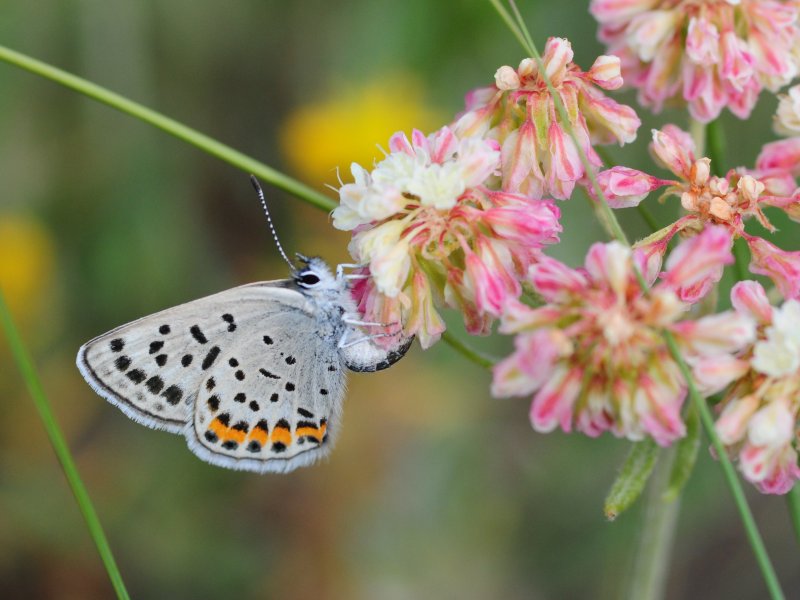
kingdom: Animalia
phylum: Arthropoda
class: Insecta
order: Lepidoptera
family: Lycaenidae
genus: Plebejus
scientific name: Plebejus lupini
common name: Lupine Blue
